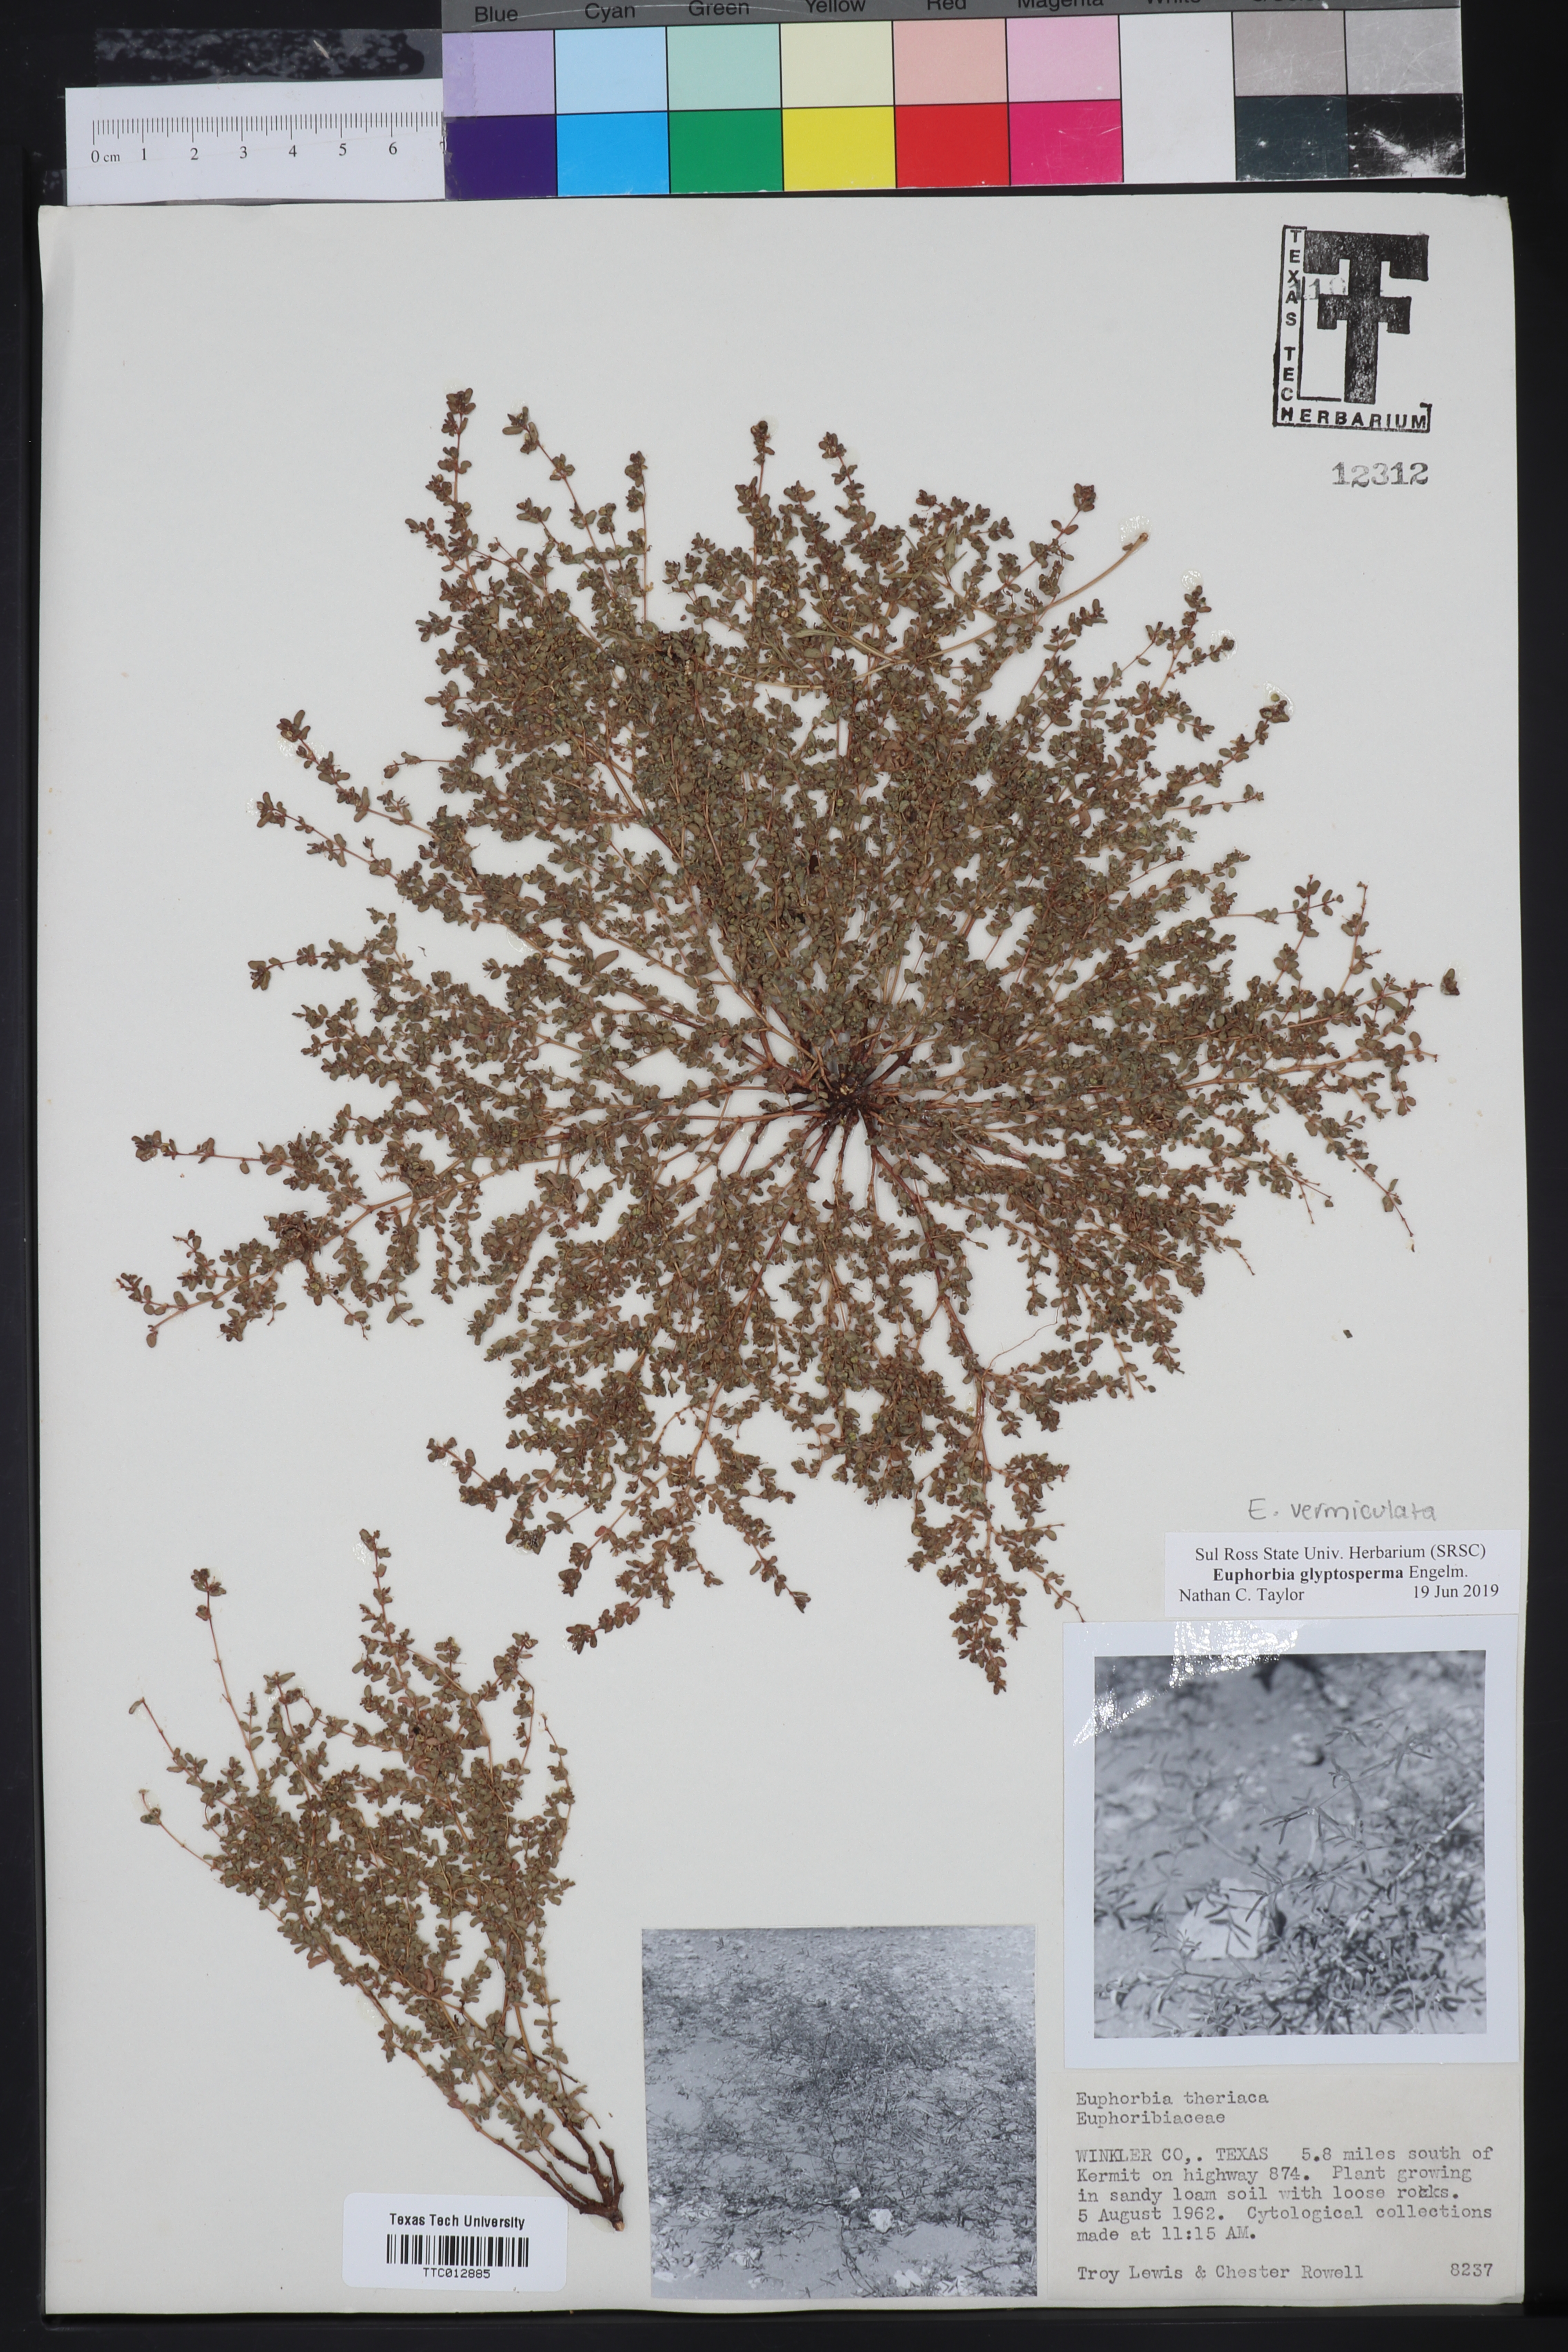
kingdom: Plantae
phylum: Tracheophyta
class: Magnoliopsida
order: Malpighiales
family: Euphorbiaceae
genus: Euphorbia
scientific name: Euphorbia glyptosperma
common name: Corrugate-seeded spurge
